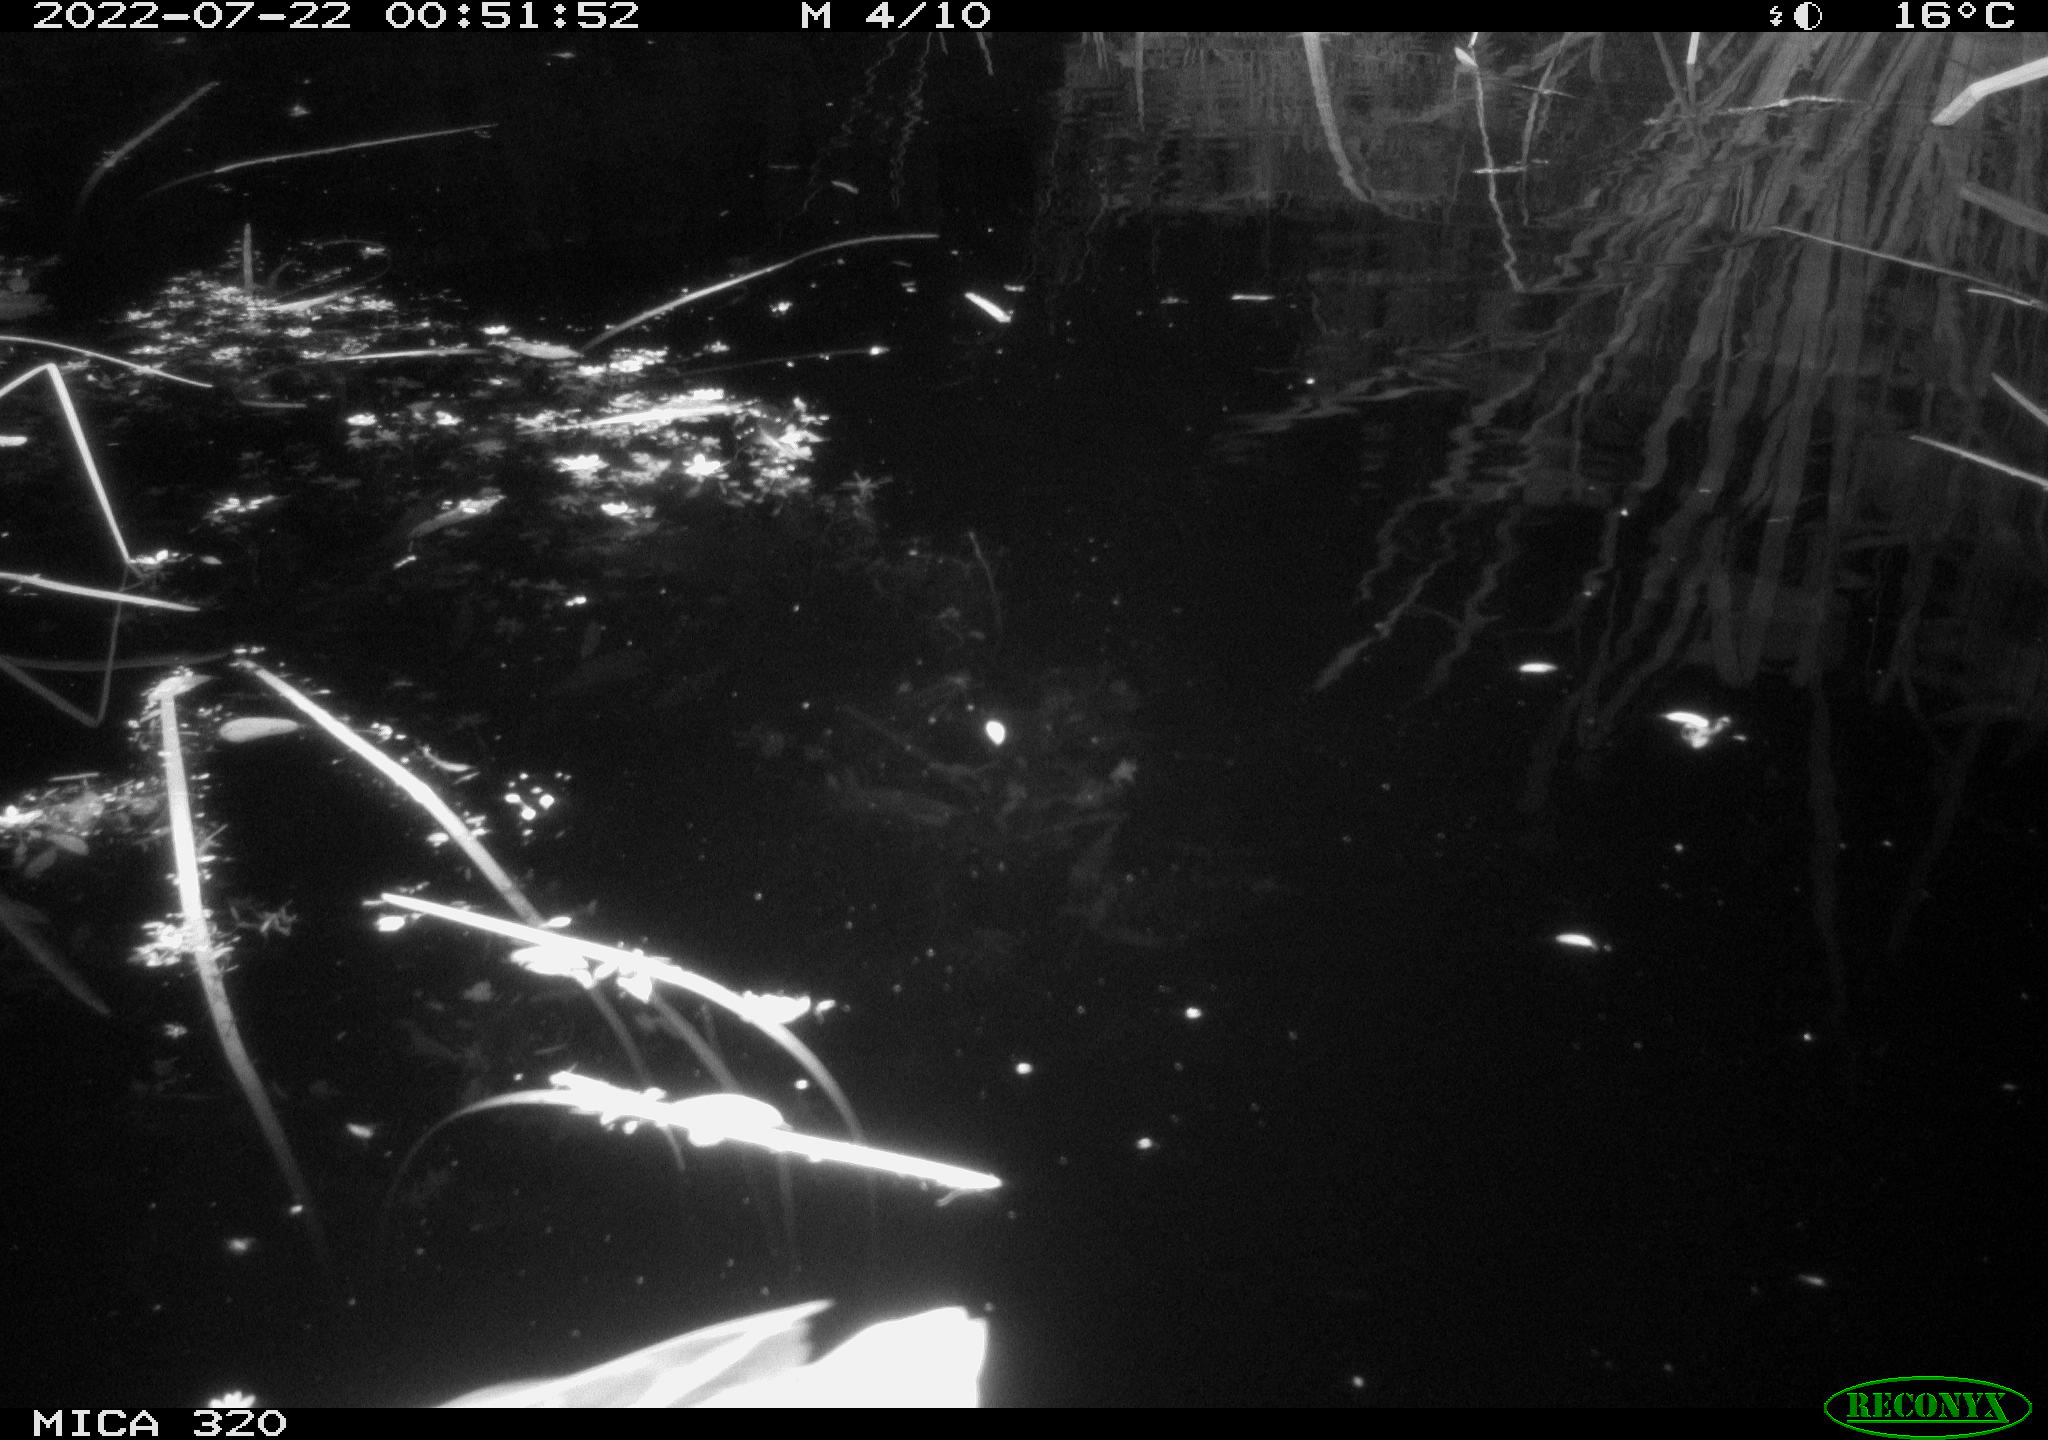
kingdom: Animalia
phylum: Chordata
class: Aves
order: Anseriformes
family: Anatidae
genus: Anas
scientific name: Anas platyrhynchos
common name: Mallard
